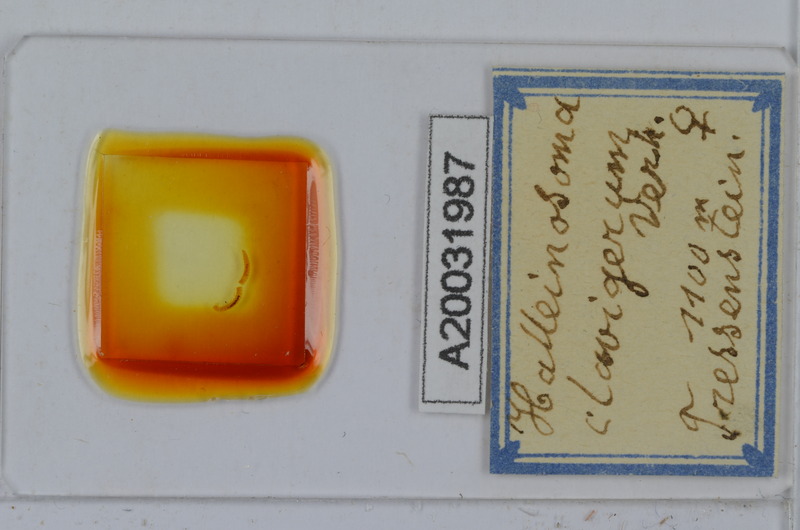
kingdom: Animalia
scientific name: Animalia
